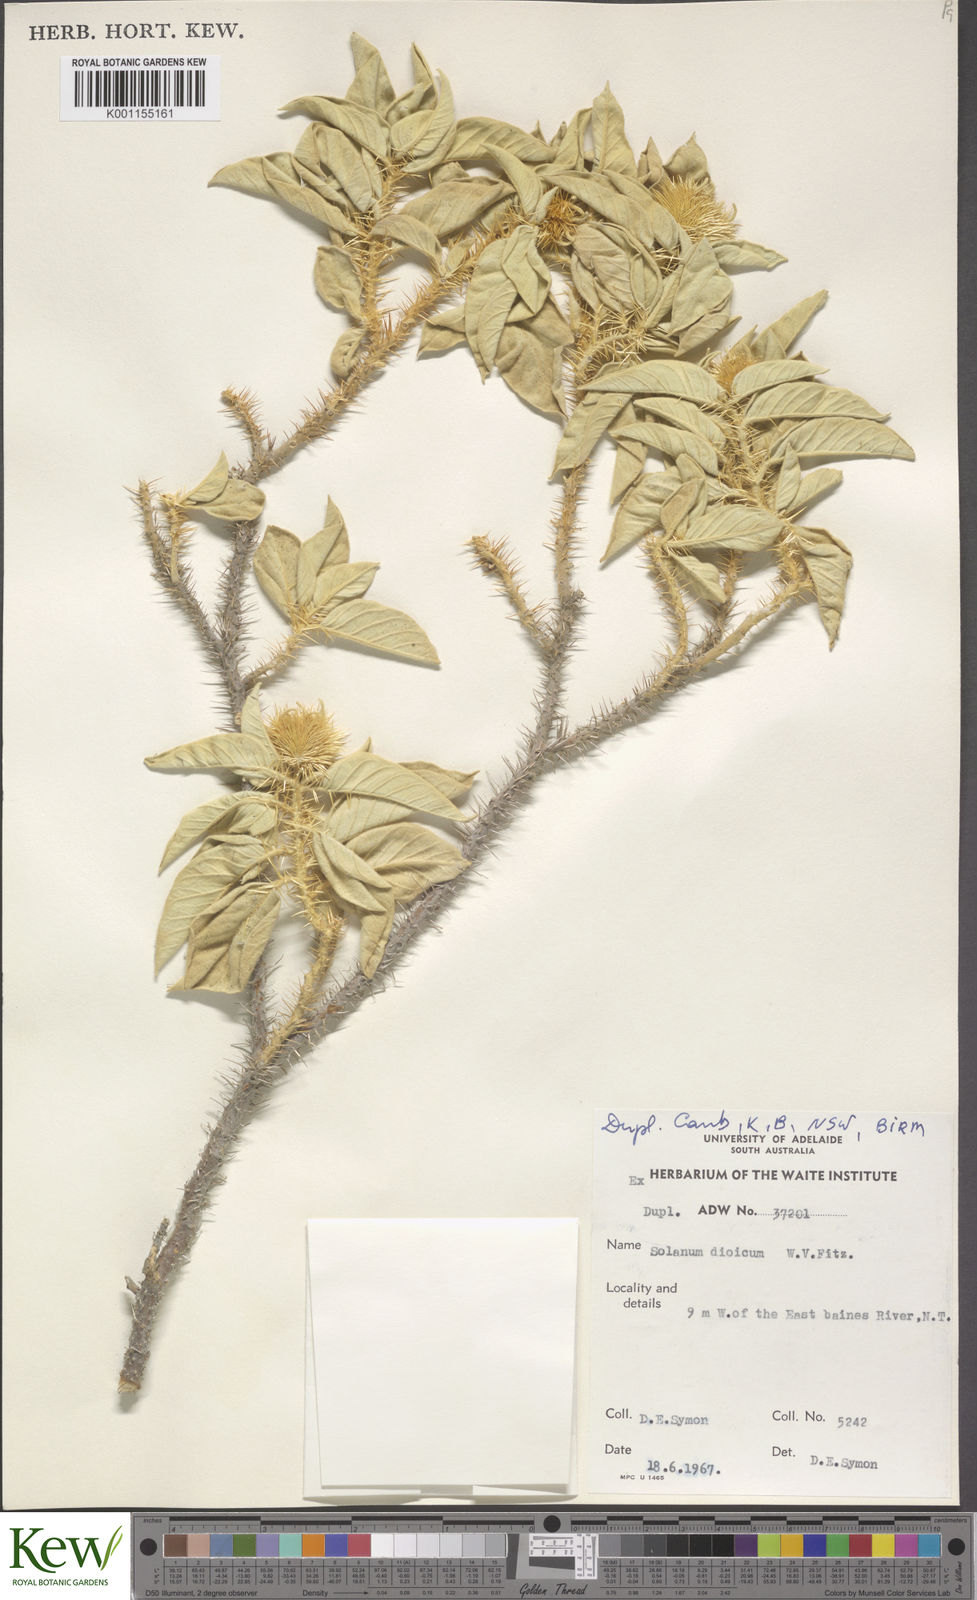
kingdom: Plantae
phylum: Tracheophyta
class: Magnoliopsida
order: Solanales
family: Solanaceae
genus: Solanum
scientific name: Solanum dioicum
